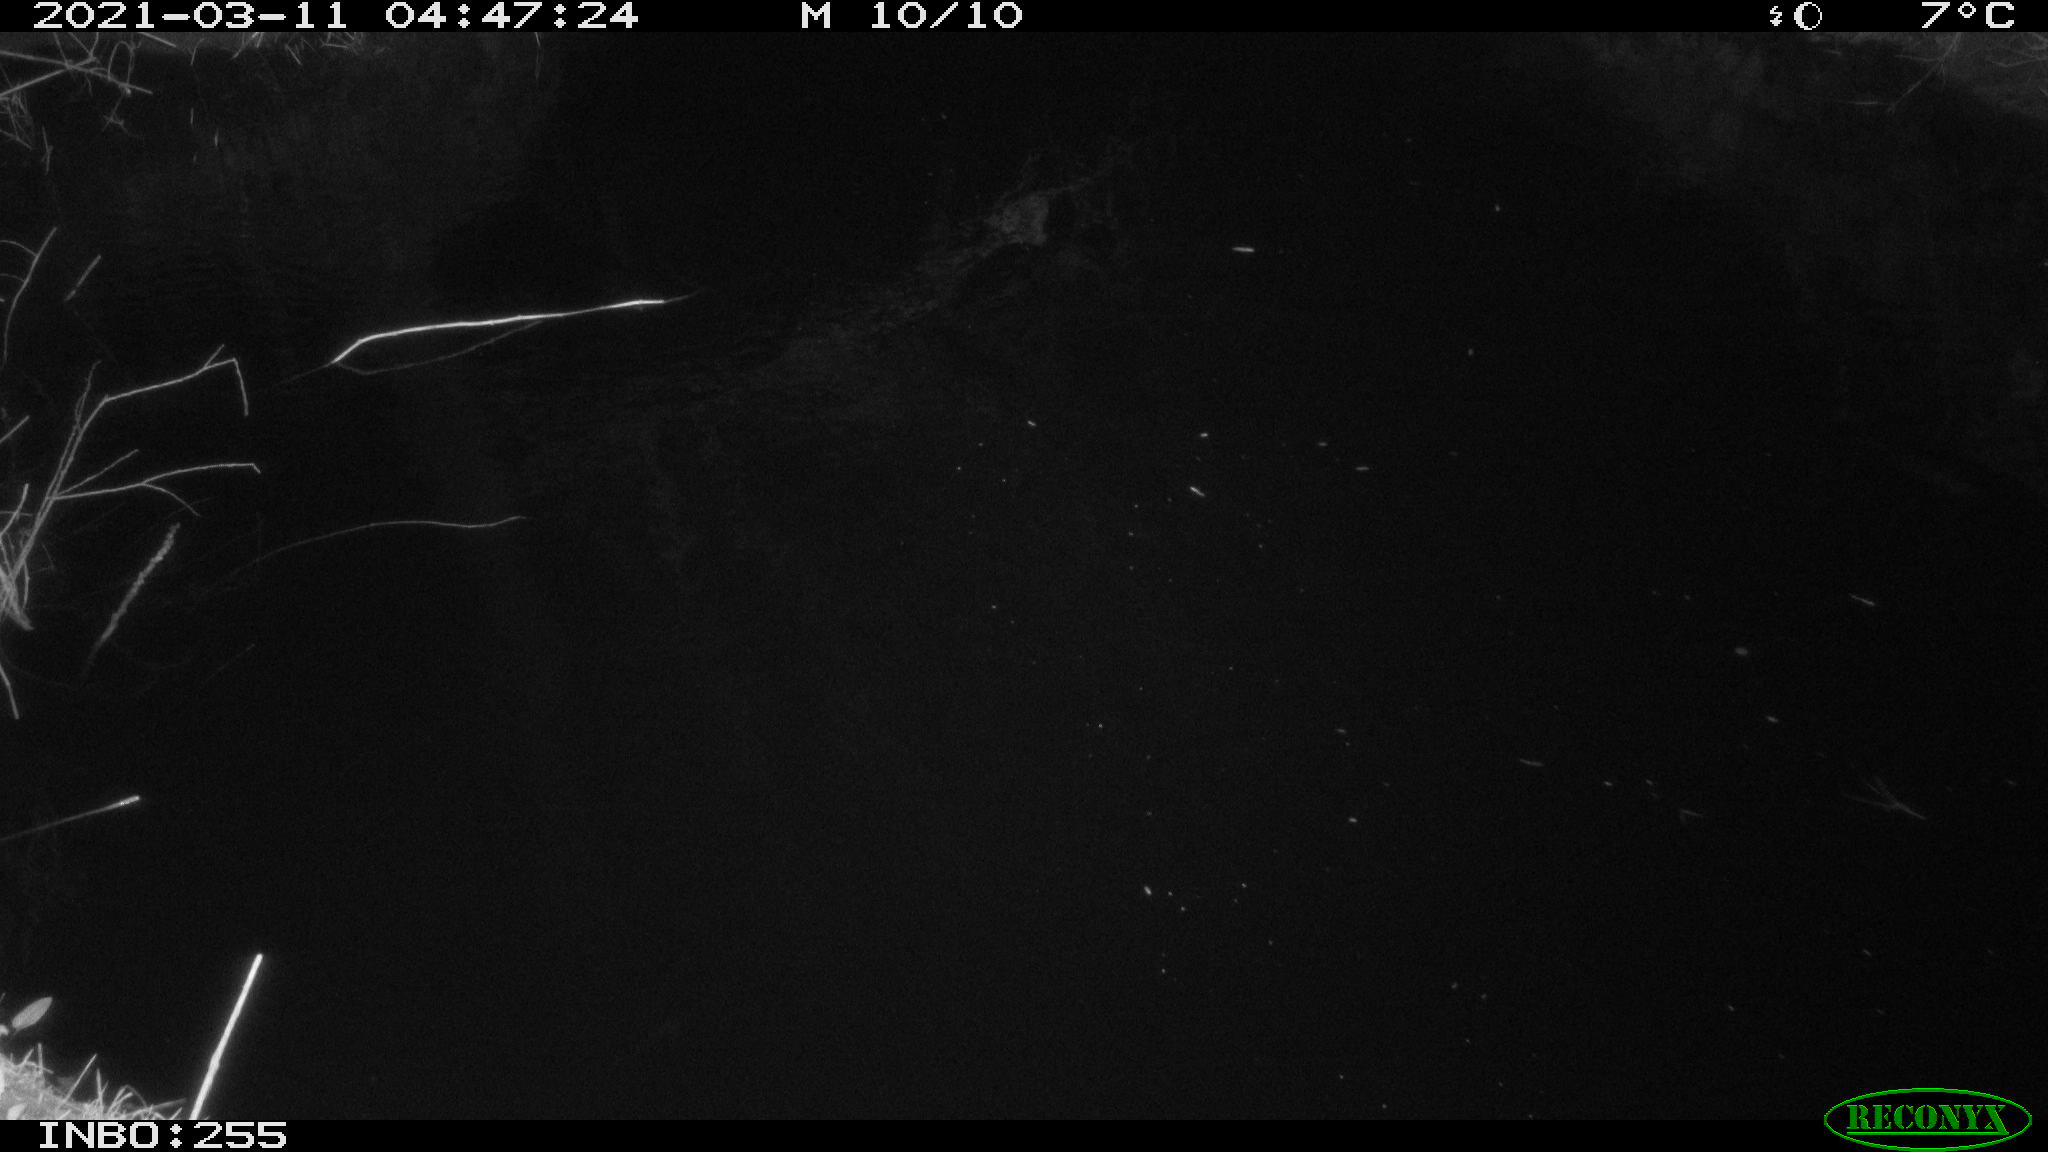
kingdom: Animalia
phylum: Chordata
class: Mammalia
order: Rodentia
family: Muridae
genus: Rattus
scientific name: Rattus norvegicus
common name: Brown rat
